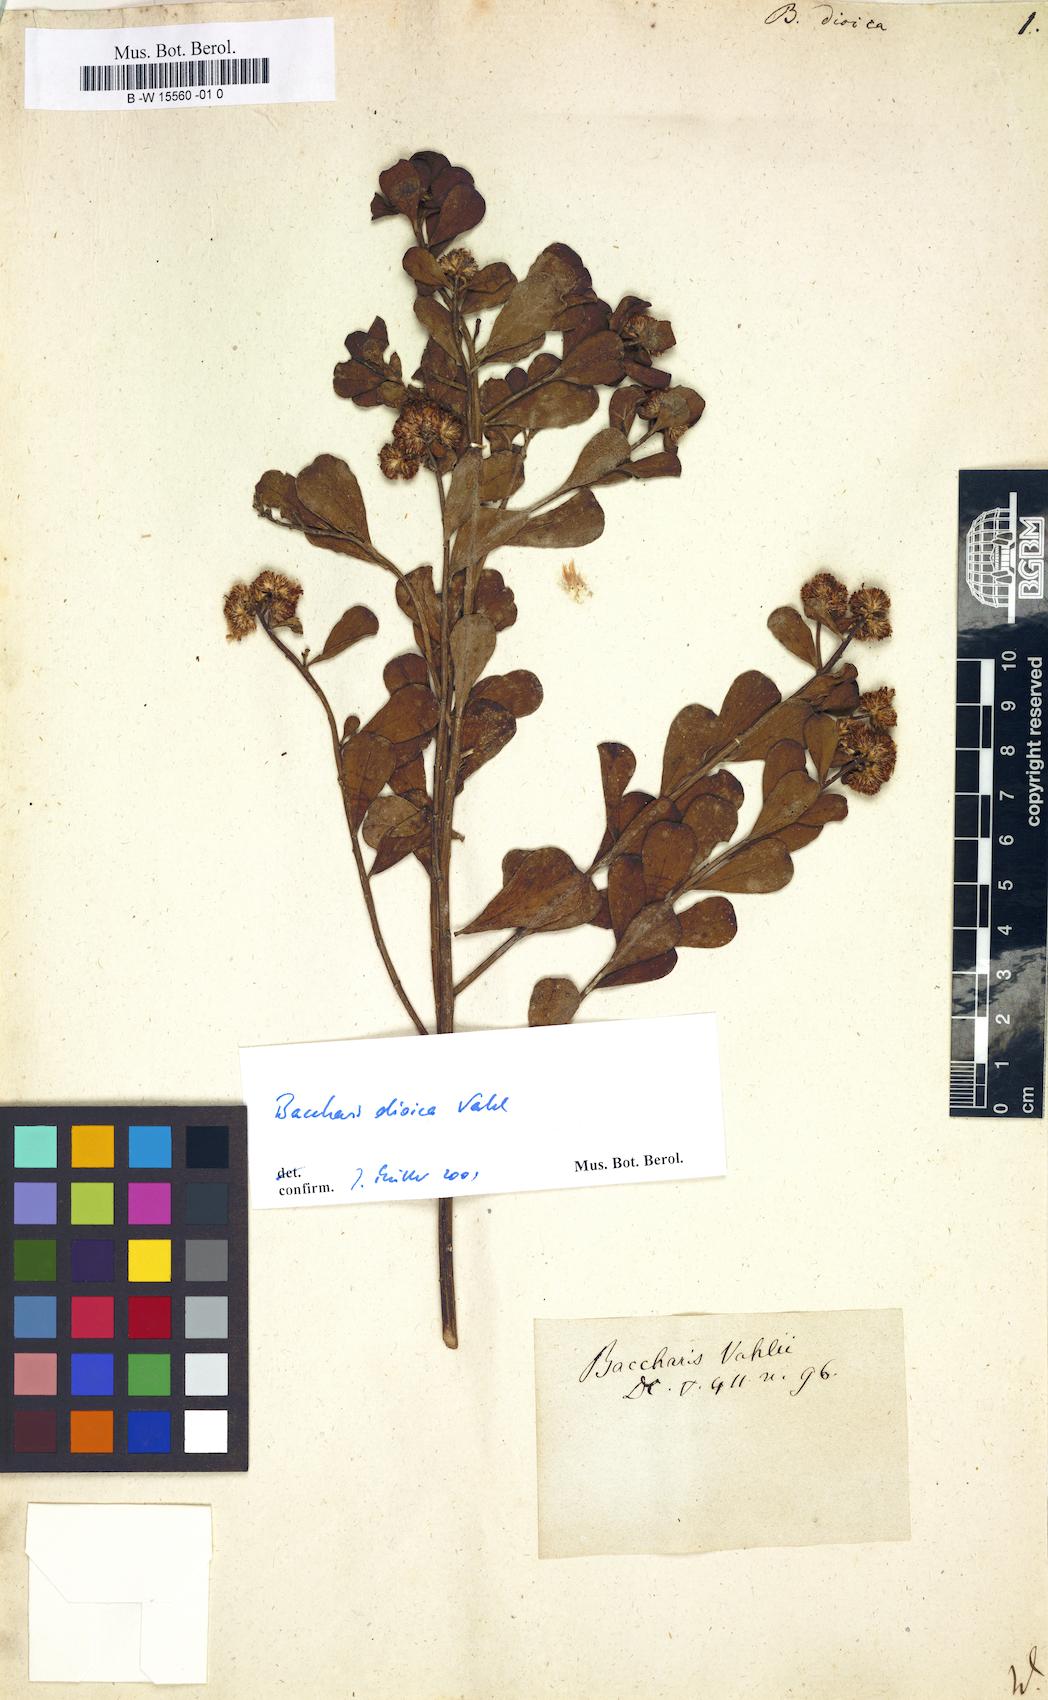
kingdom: Plantae
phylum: Tracheophyta
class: Magnoliopsida
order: Asterales
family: Asteraceae
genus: Baccharis
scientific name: Baccharis dioica
